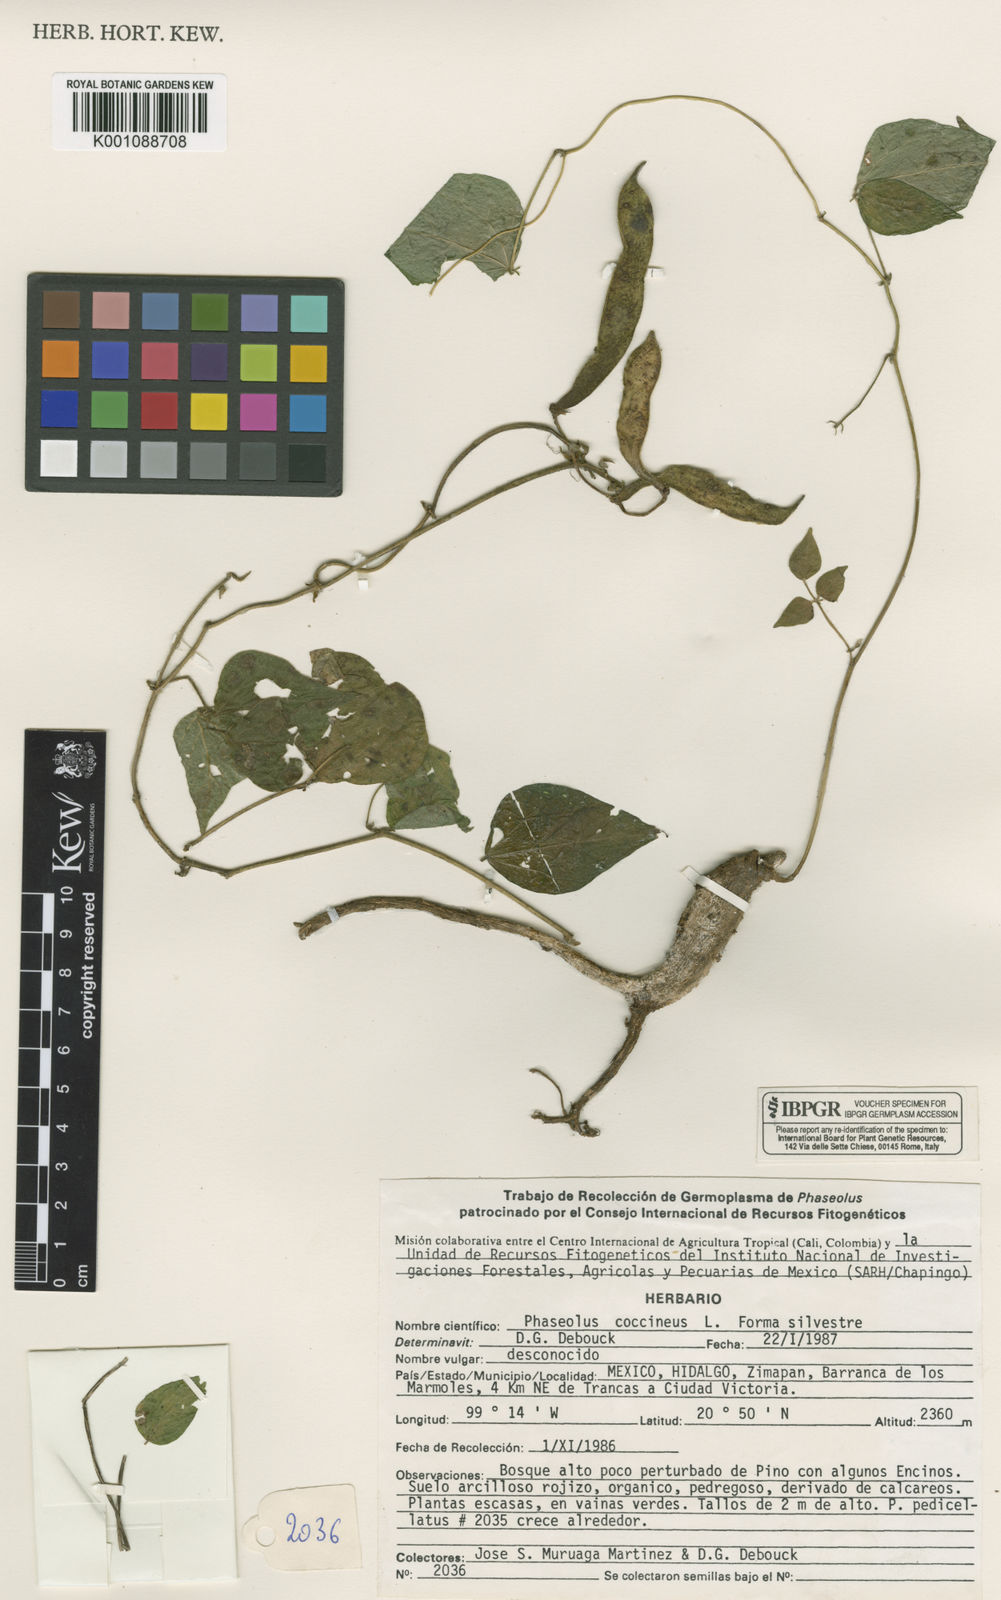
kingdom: Plantae
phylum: Tracheophyta
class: Magnoliopsida
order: Fabales
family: Fabaceae
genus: Phaseolus
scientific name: Phaseolus coccineus
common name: Runner bean
